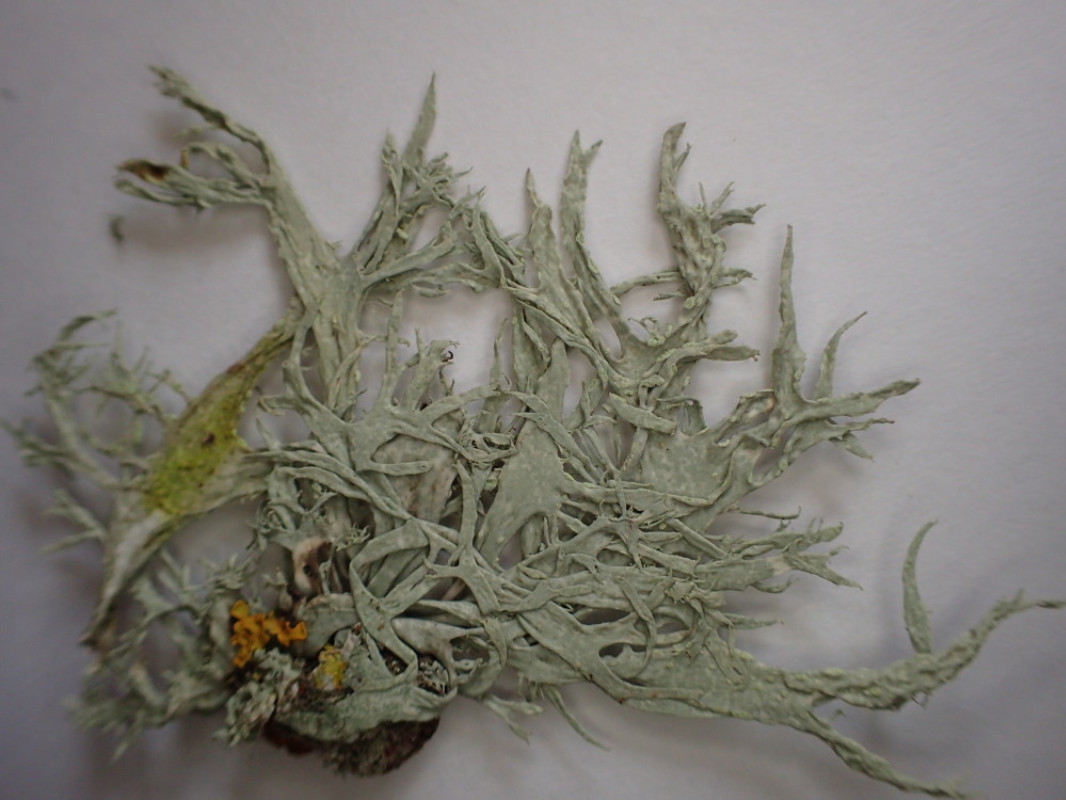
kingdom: Fungi
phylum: Ascomycota
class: Lecanoromycetes
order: Lecanorales
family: Ramalinaceae
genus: Ramalina
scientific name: Ramalina farinacea
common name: melet grenlav
